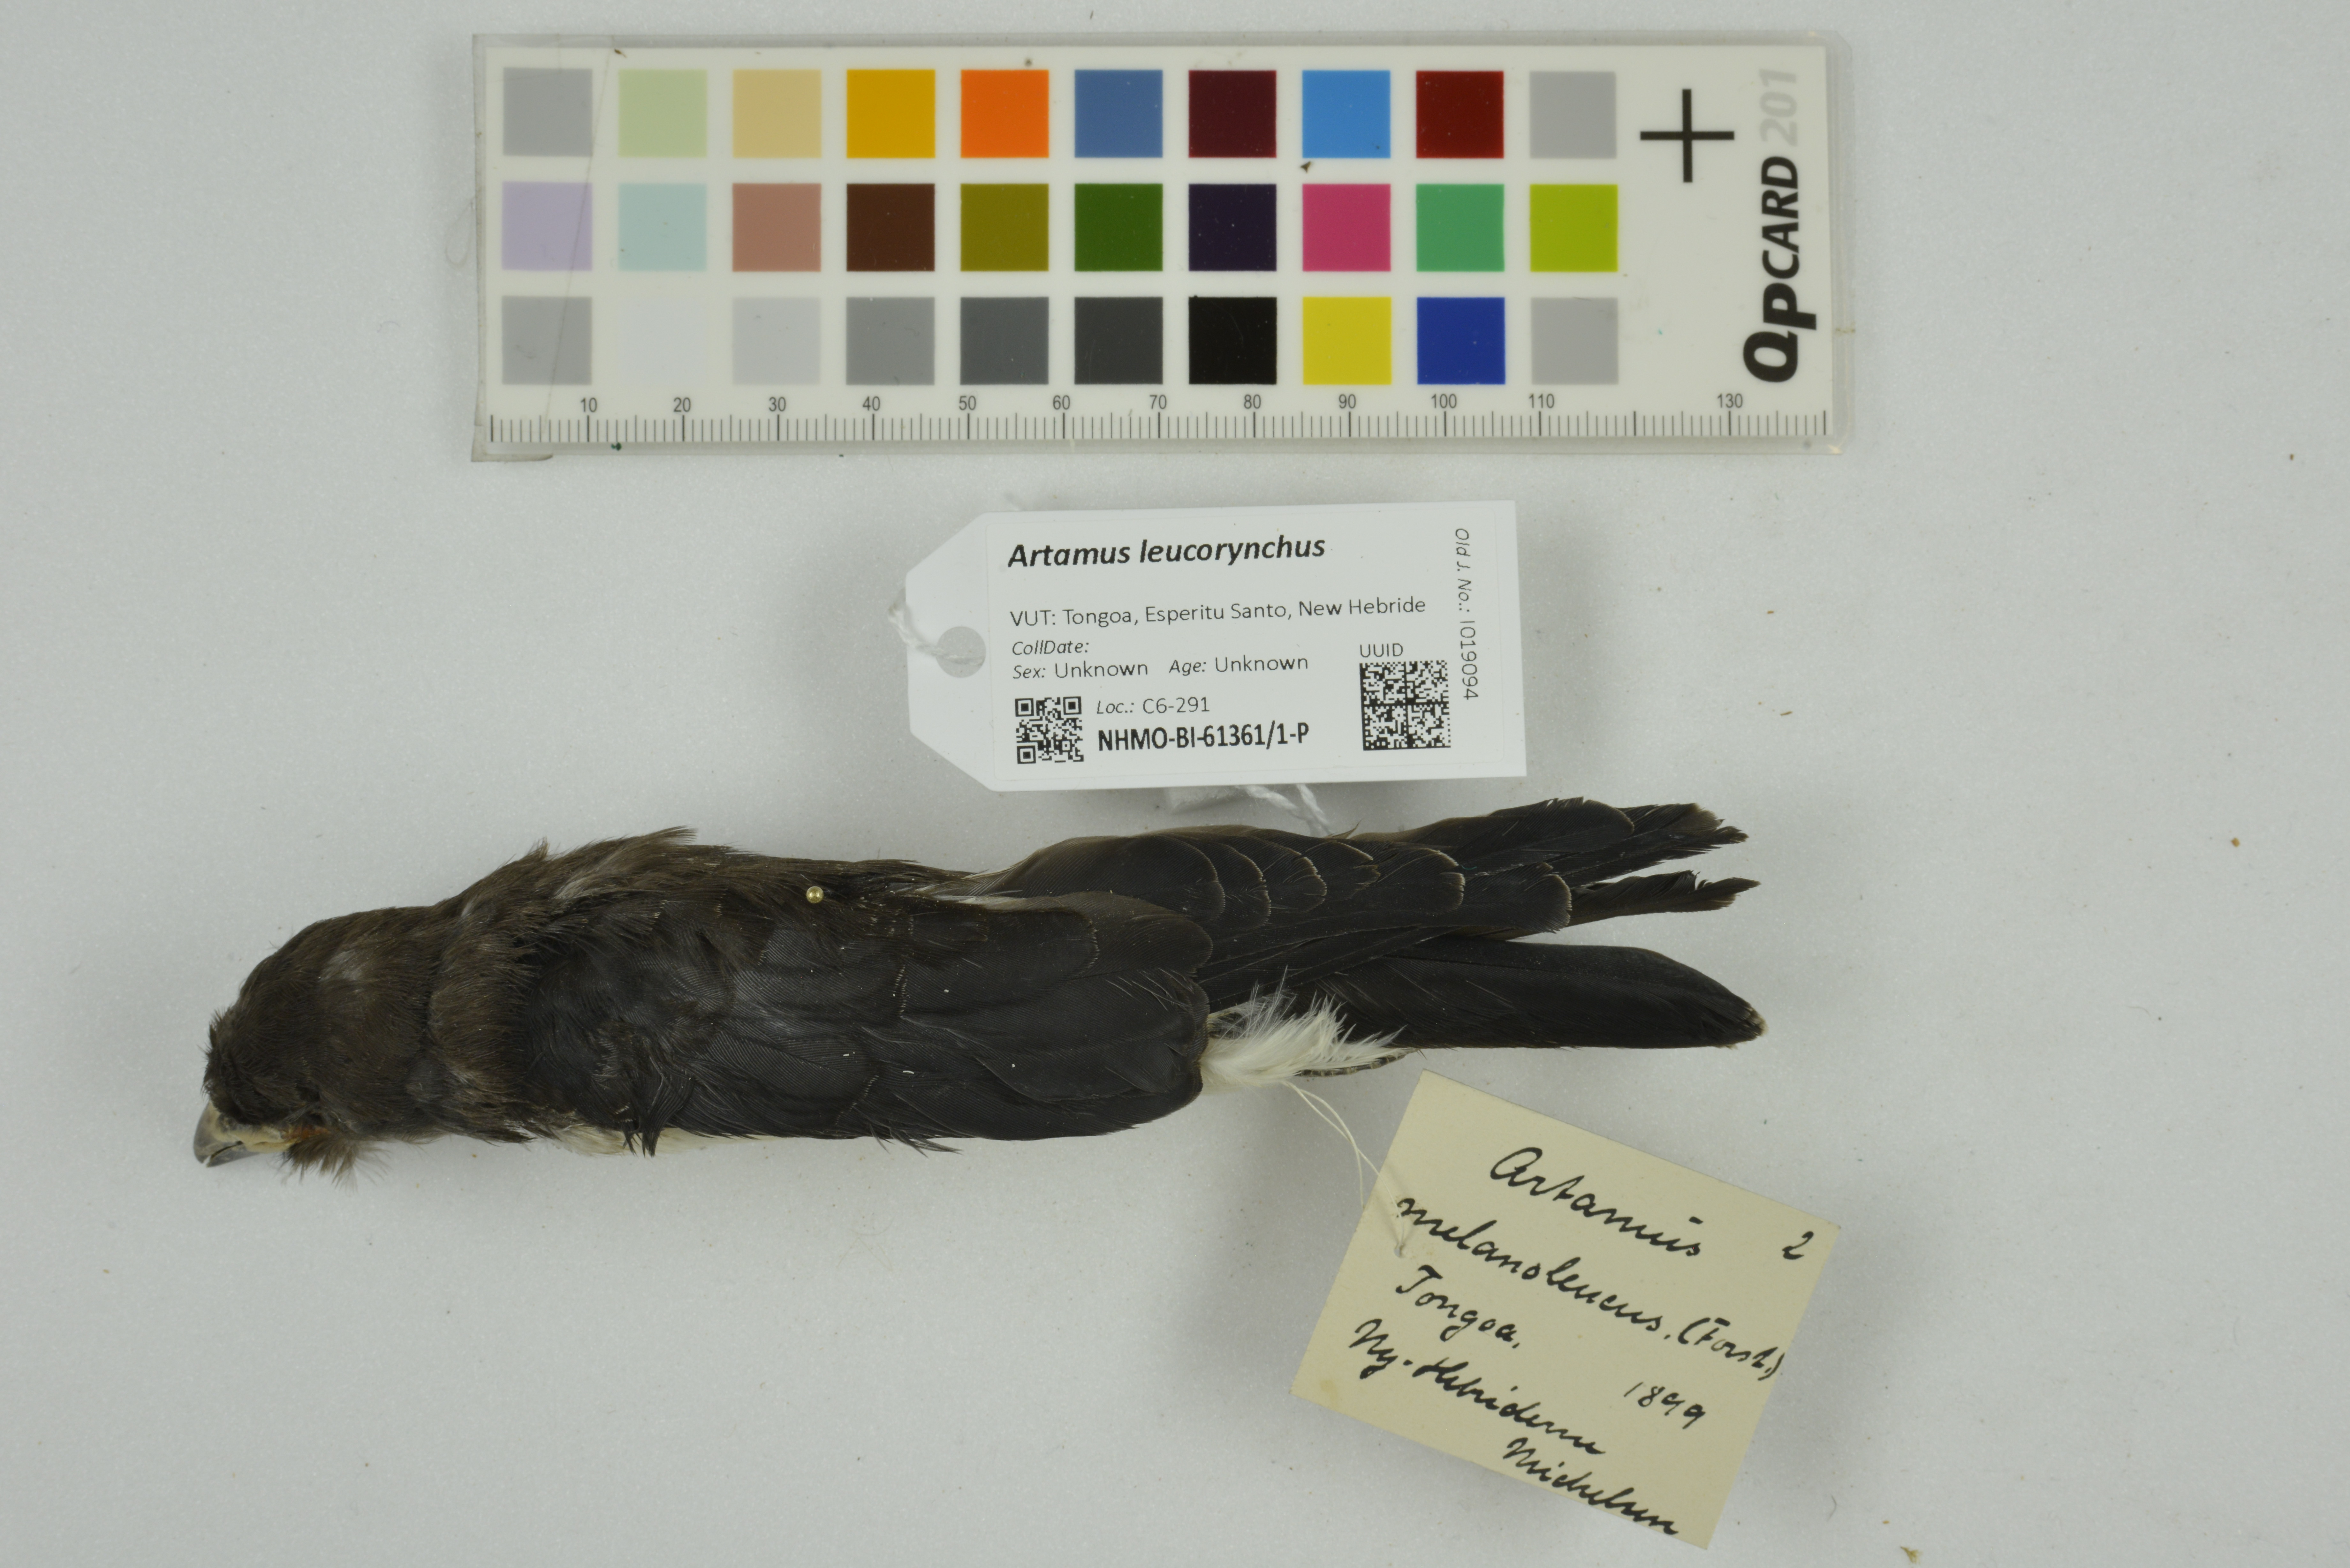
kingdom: Animalia
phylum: Chordata
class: Aves
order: Passeriformes
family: Artamidae
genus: Artamus
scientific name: Artamus leucoryn
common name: White-breasted woodswallow
